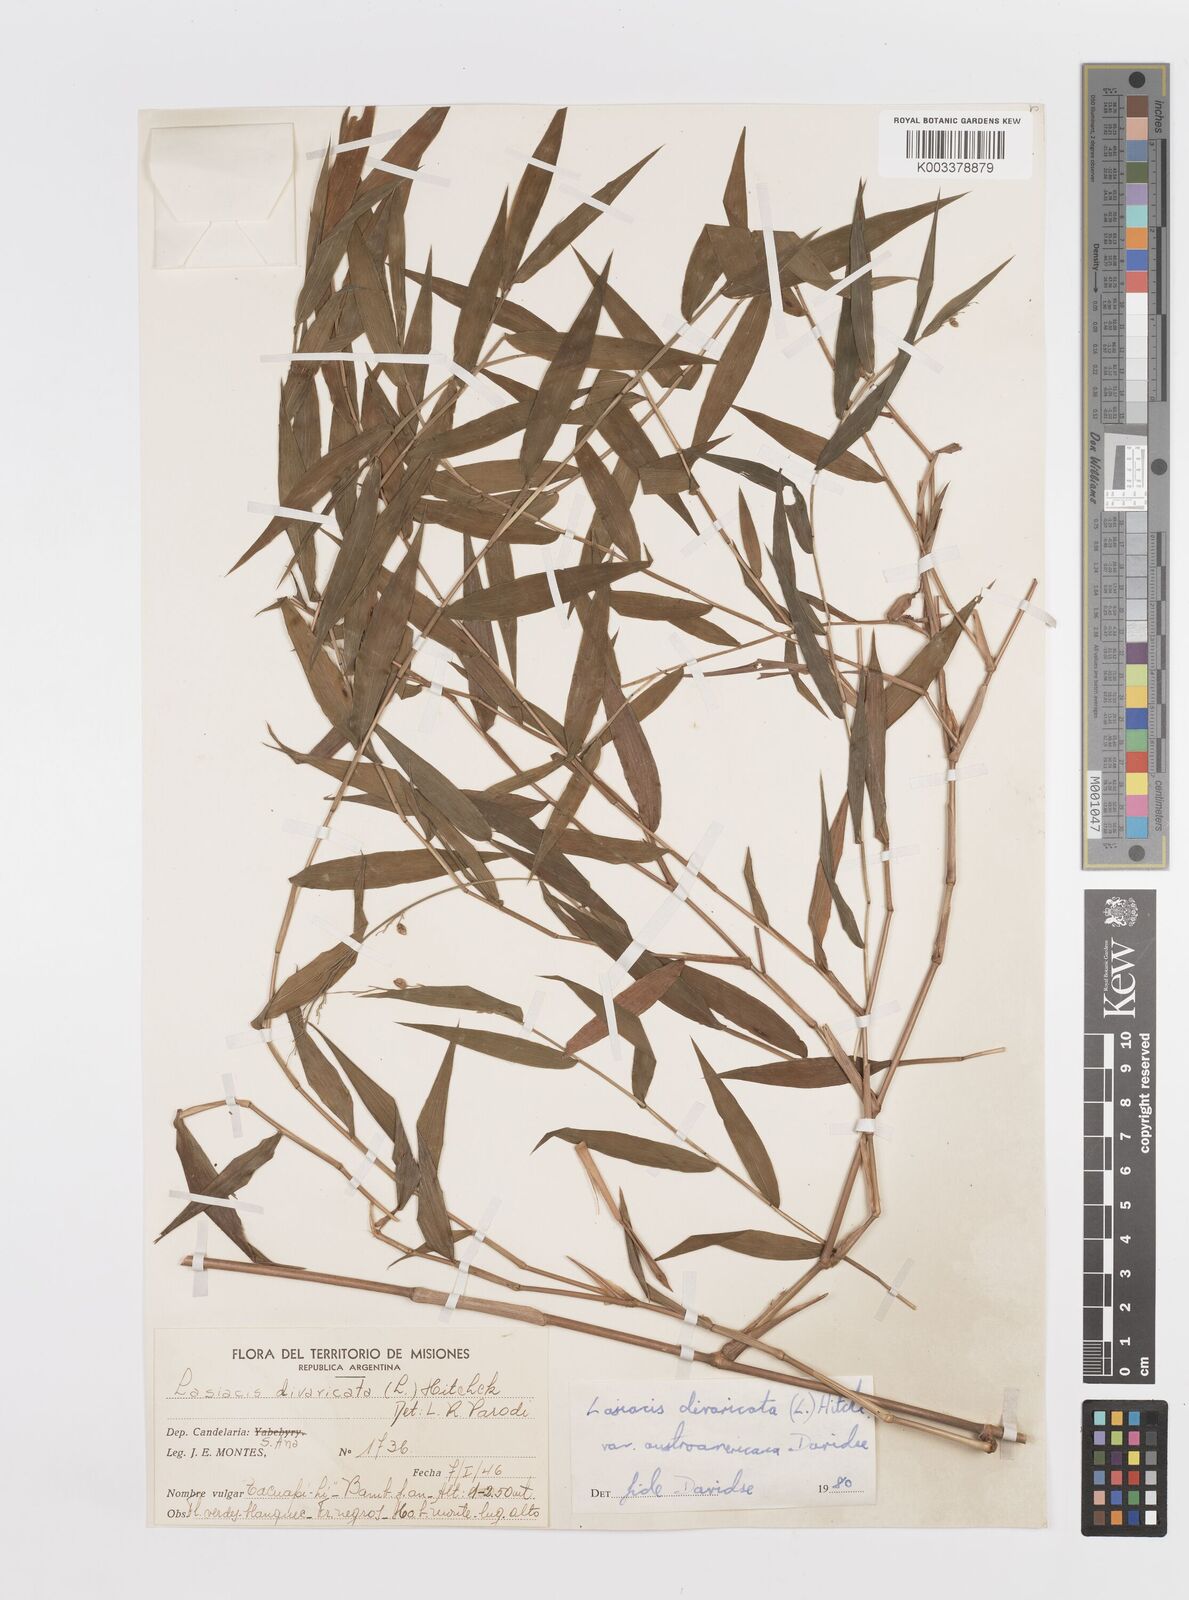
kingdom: Plantae
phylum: Tracheophyta
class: Liliopsida
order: Poales
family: Poaceae
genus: Lasiacis
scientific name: Lasiacis divaricata
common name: Smallcane
